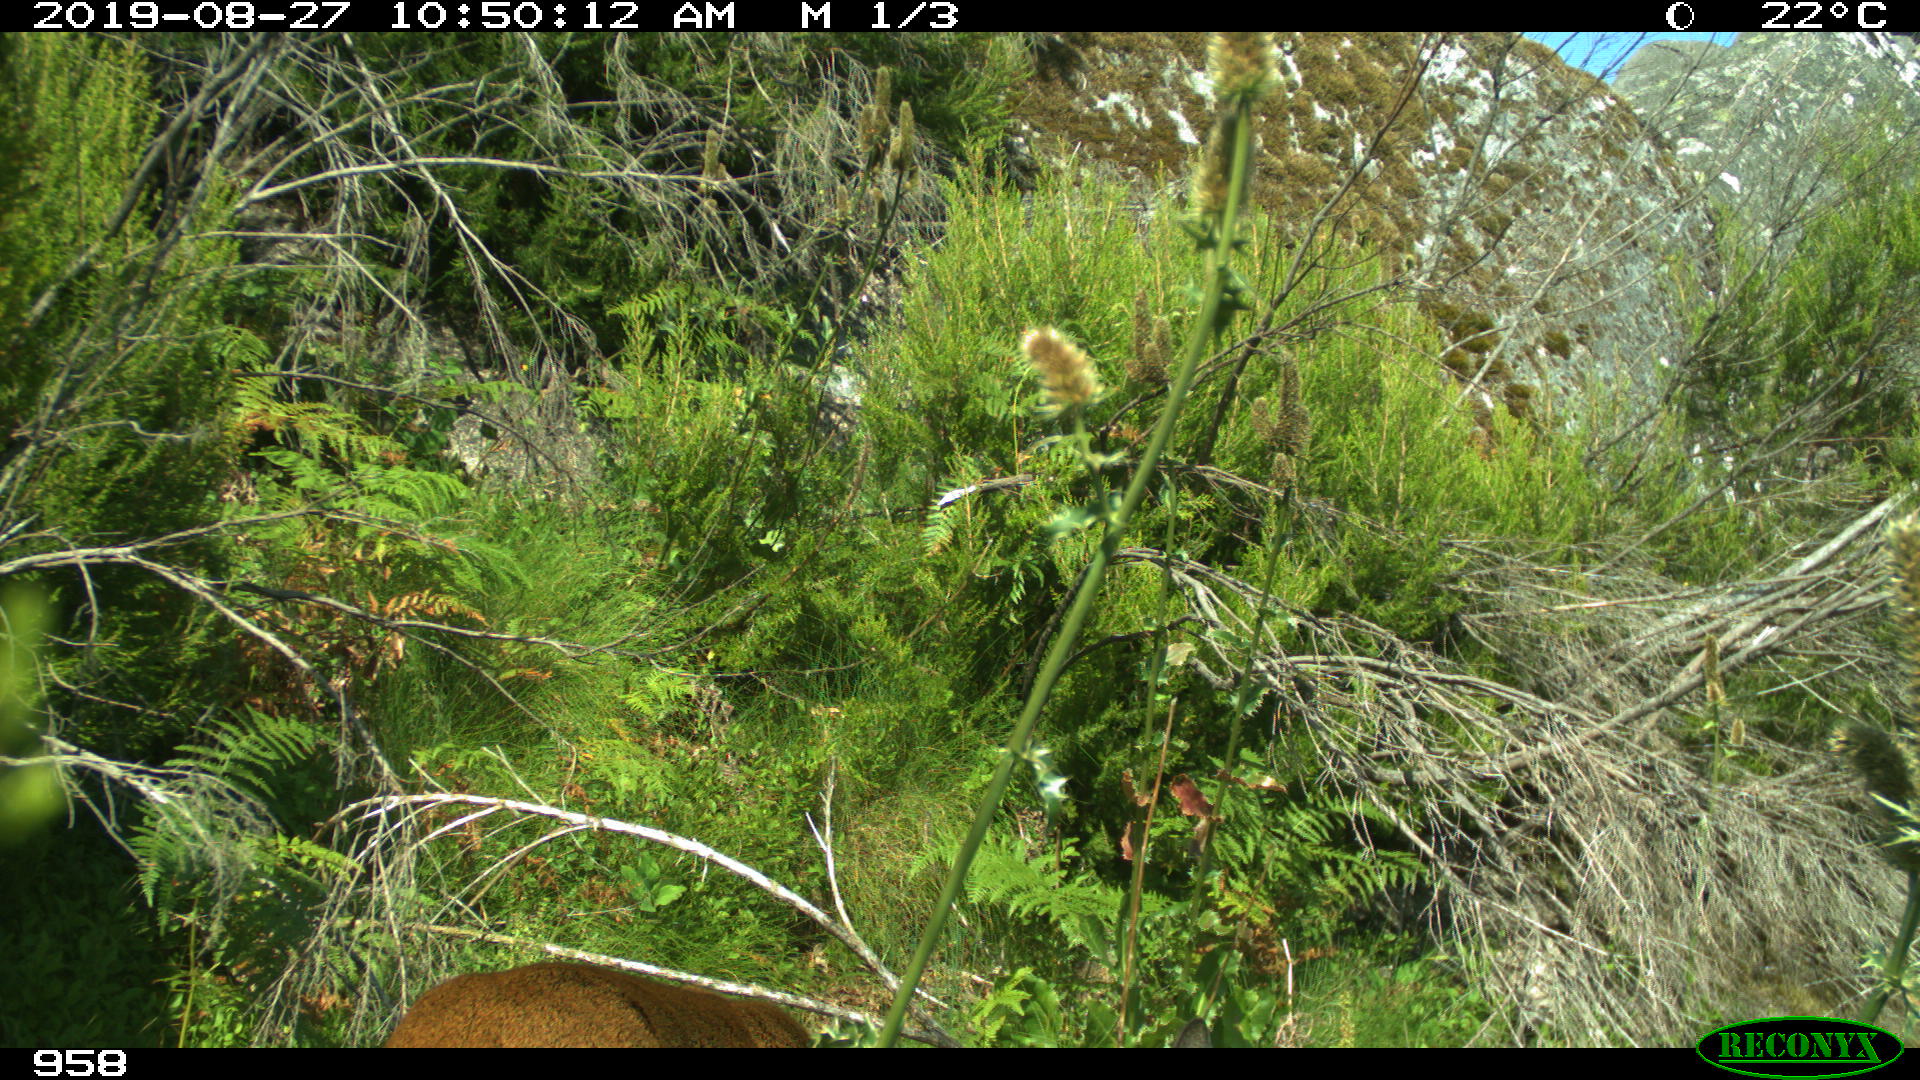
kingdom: Animalia
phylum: Chordata
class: Mammalia
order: Artiodactyla
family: Cervidae
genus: Capreolus
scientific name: Capreolus capreolus
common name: Western roe deer
